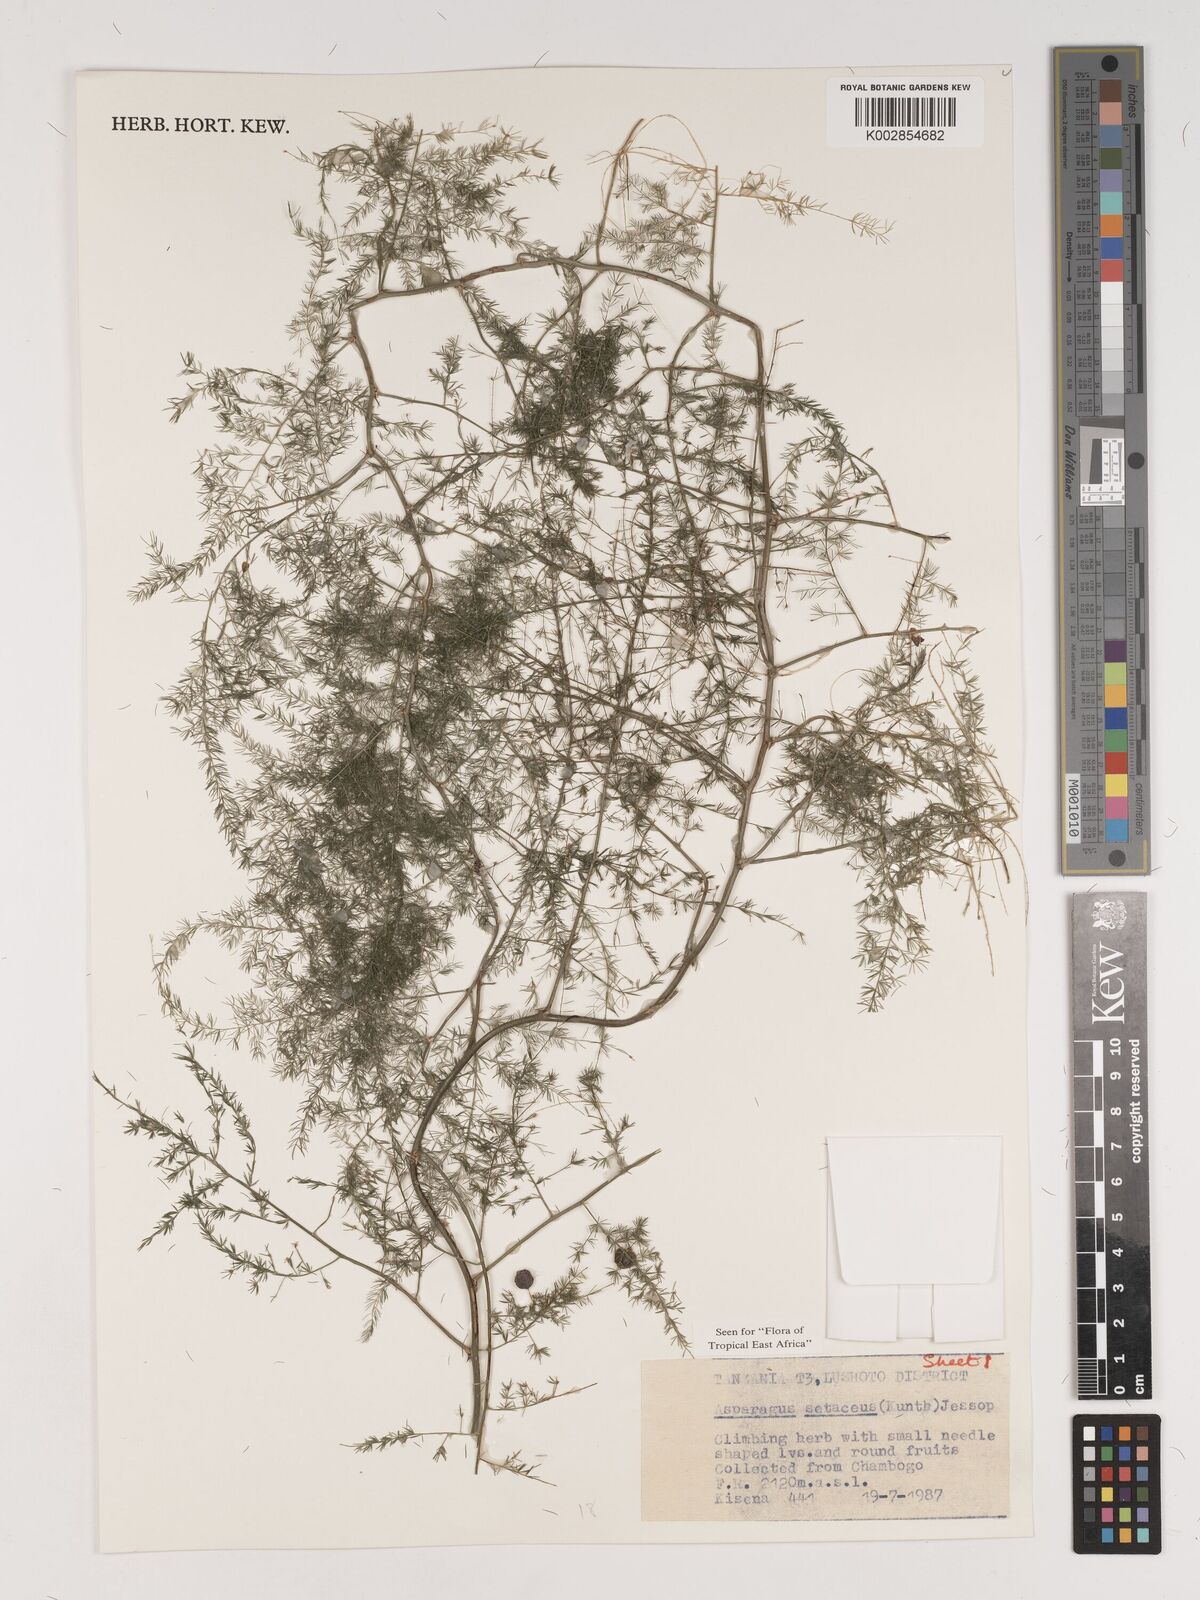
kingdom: Plantae
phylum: Tracheophyta
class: Liliopsida
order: Asparagales
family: Asparagaceae
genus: Asparagus
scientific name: Asparagus setaceus
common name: Common asparagus fern
